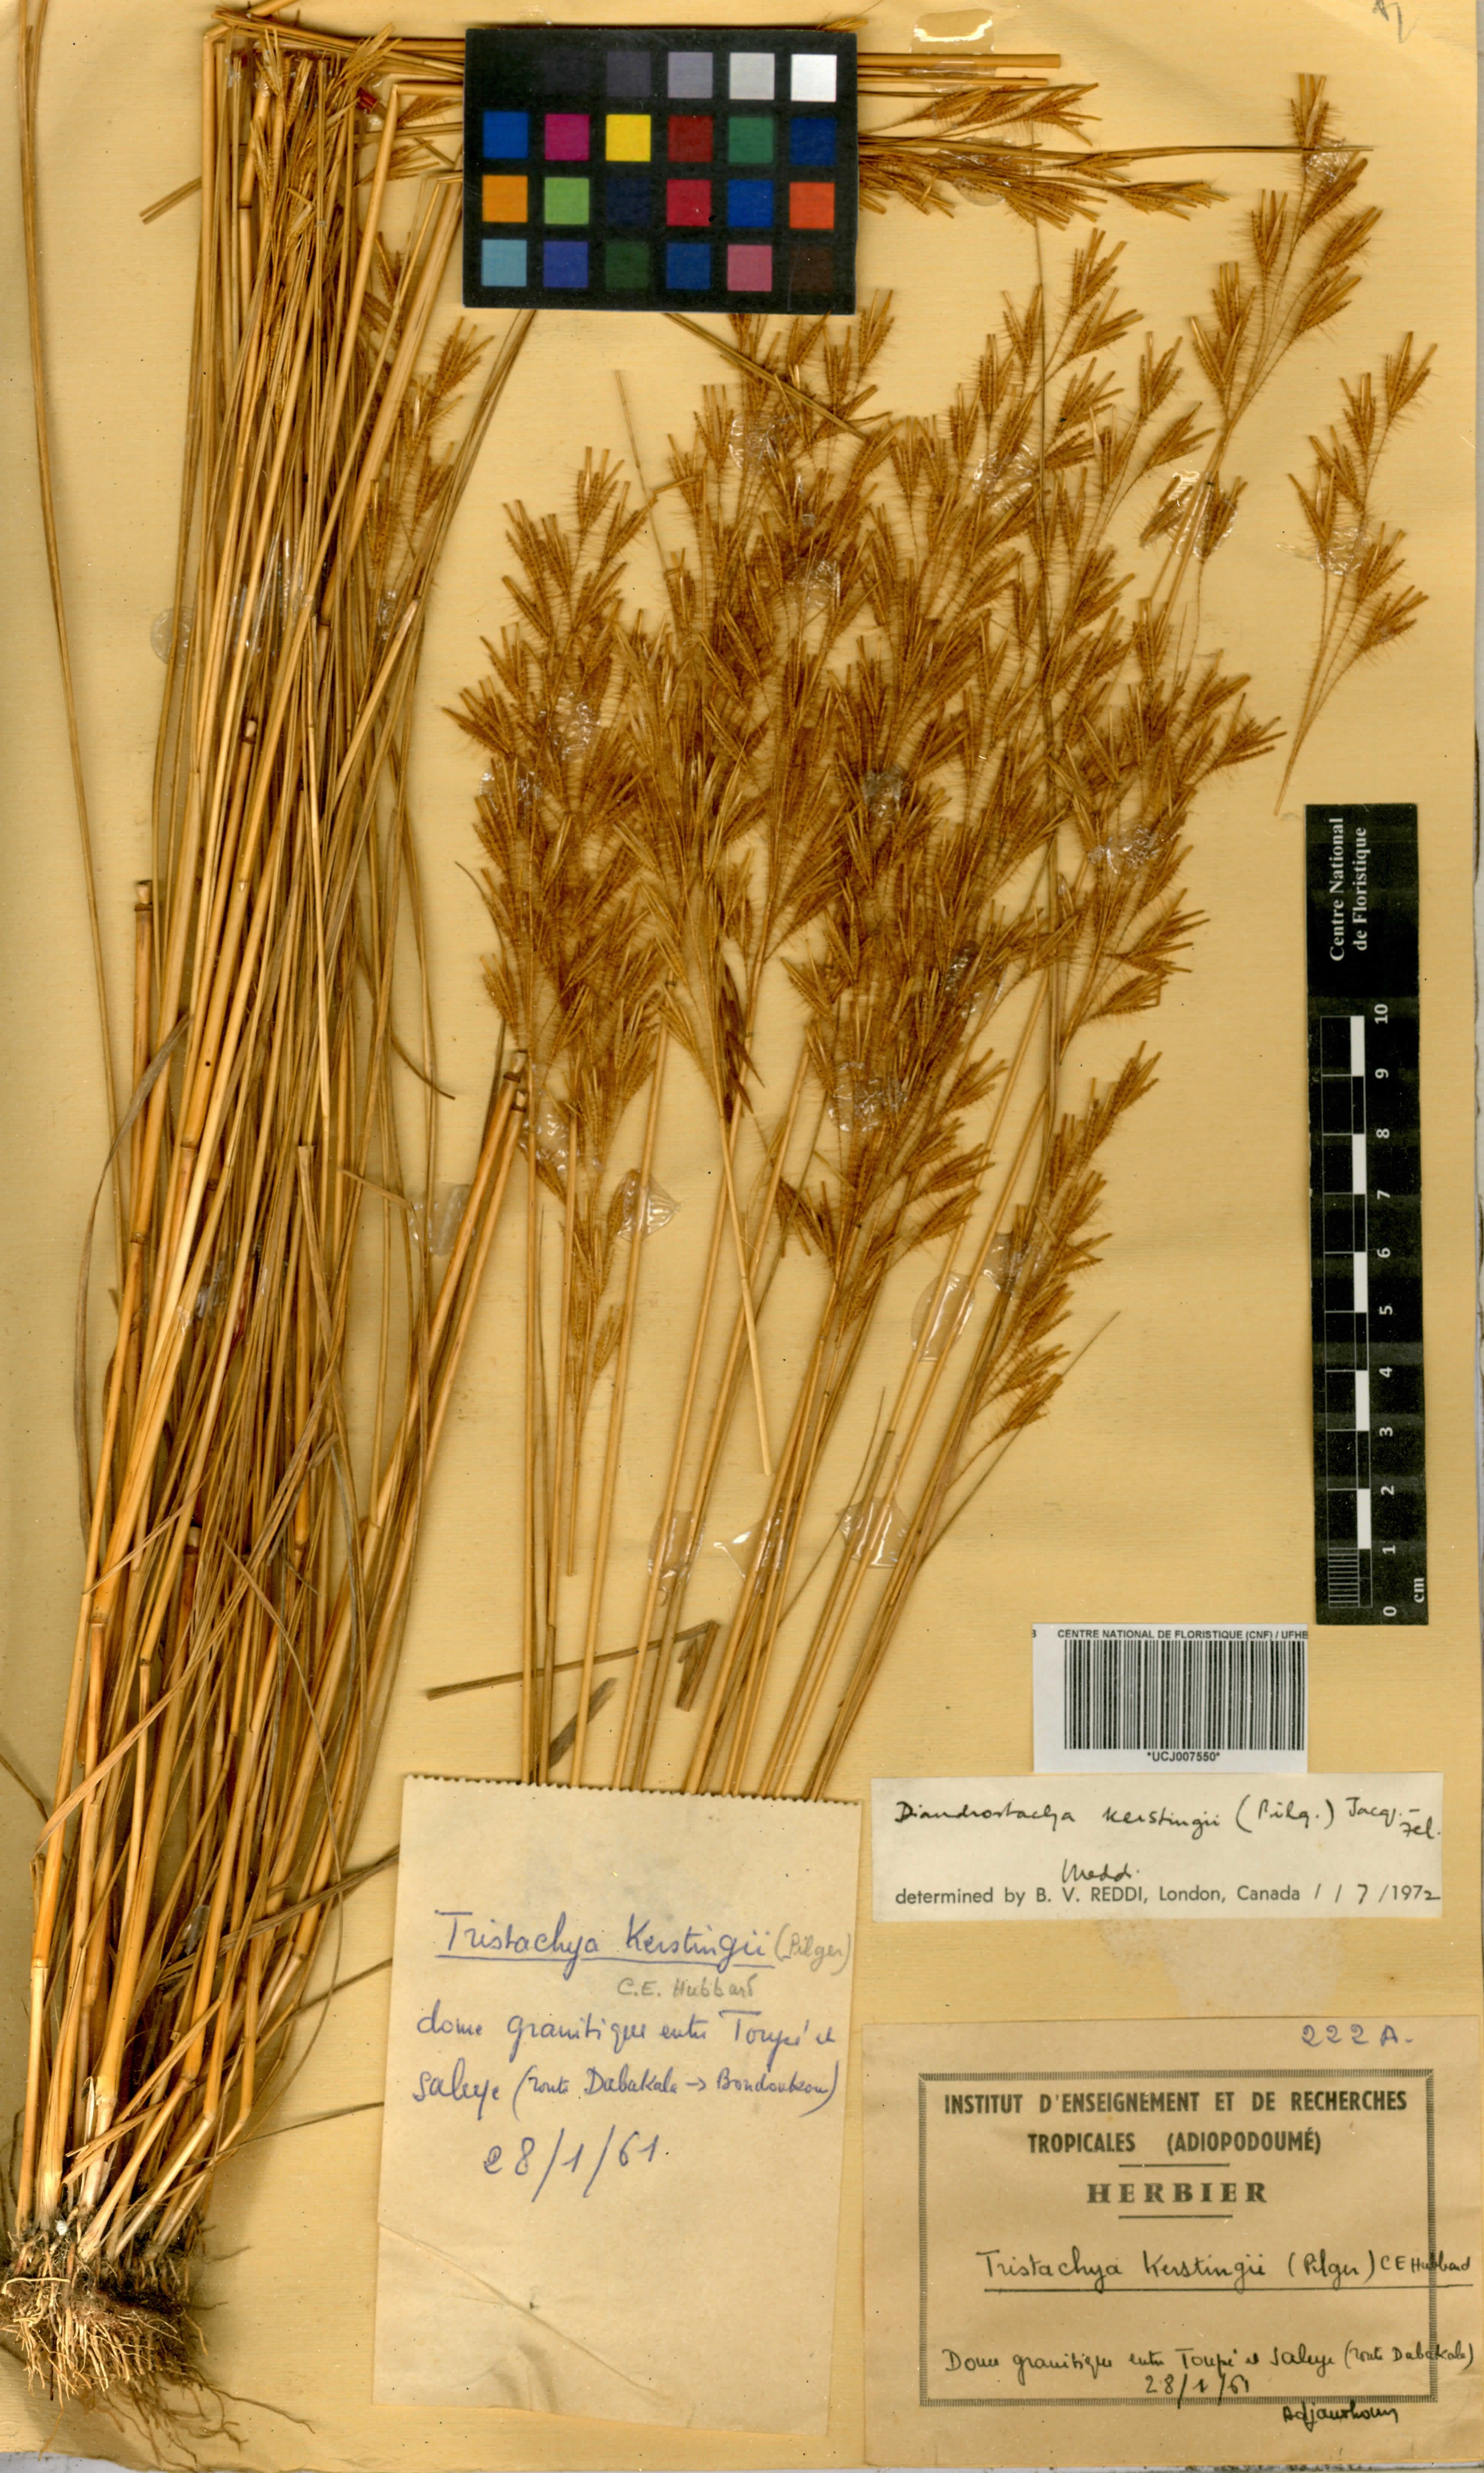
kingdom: Plantae
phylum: Tracheophyta
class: Liliopsida
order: Poales
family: Poaceae
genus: Loudetiopsis
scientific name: Loudetiopsis kerstingii
